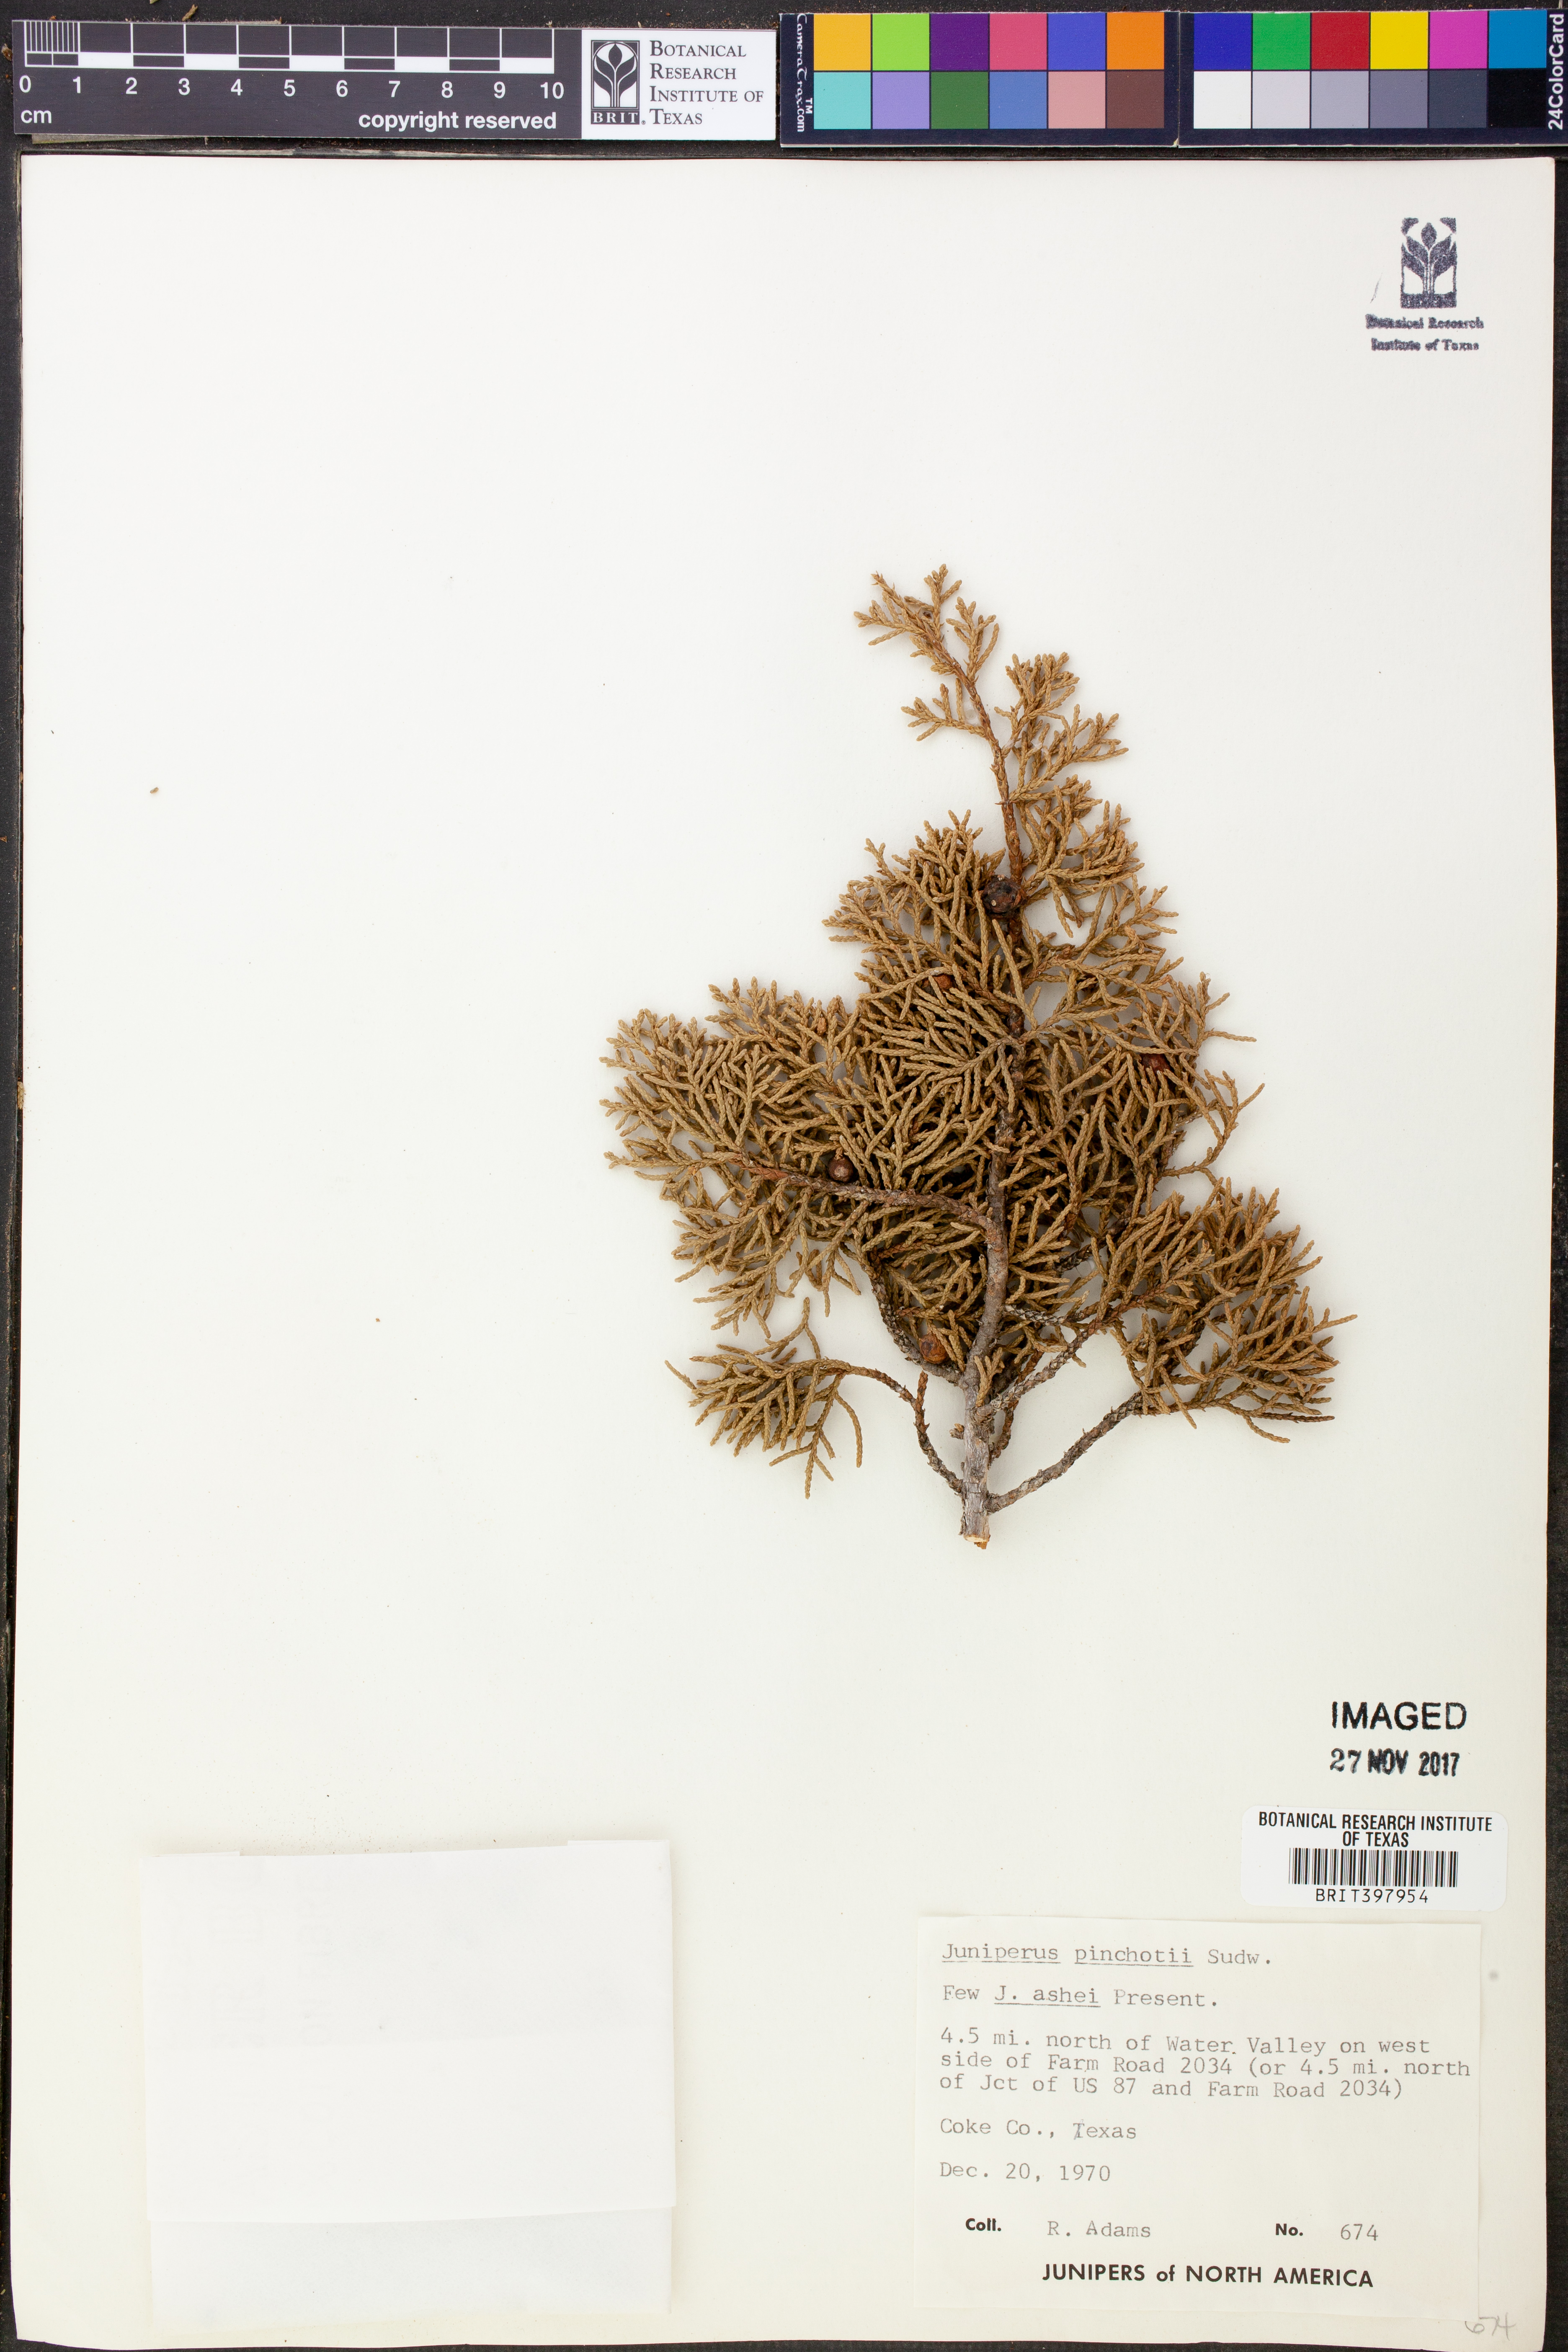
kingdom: Plantae
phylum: Tracheophyta
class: Pinopsida
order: Pinales
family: Cupressaceae
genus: Juniperus
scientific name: Juniperus pinchotii
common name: Pinchot juniper
